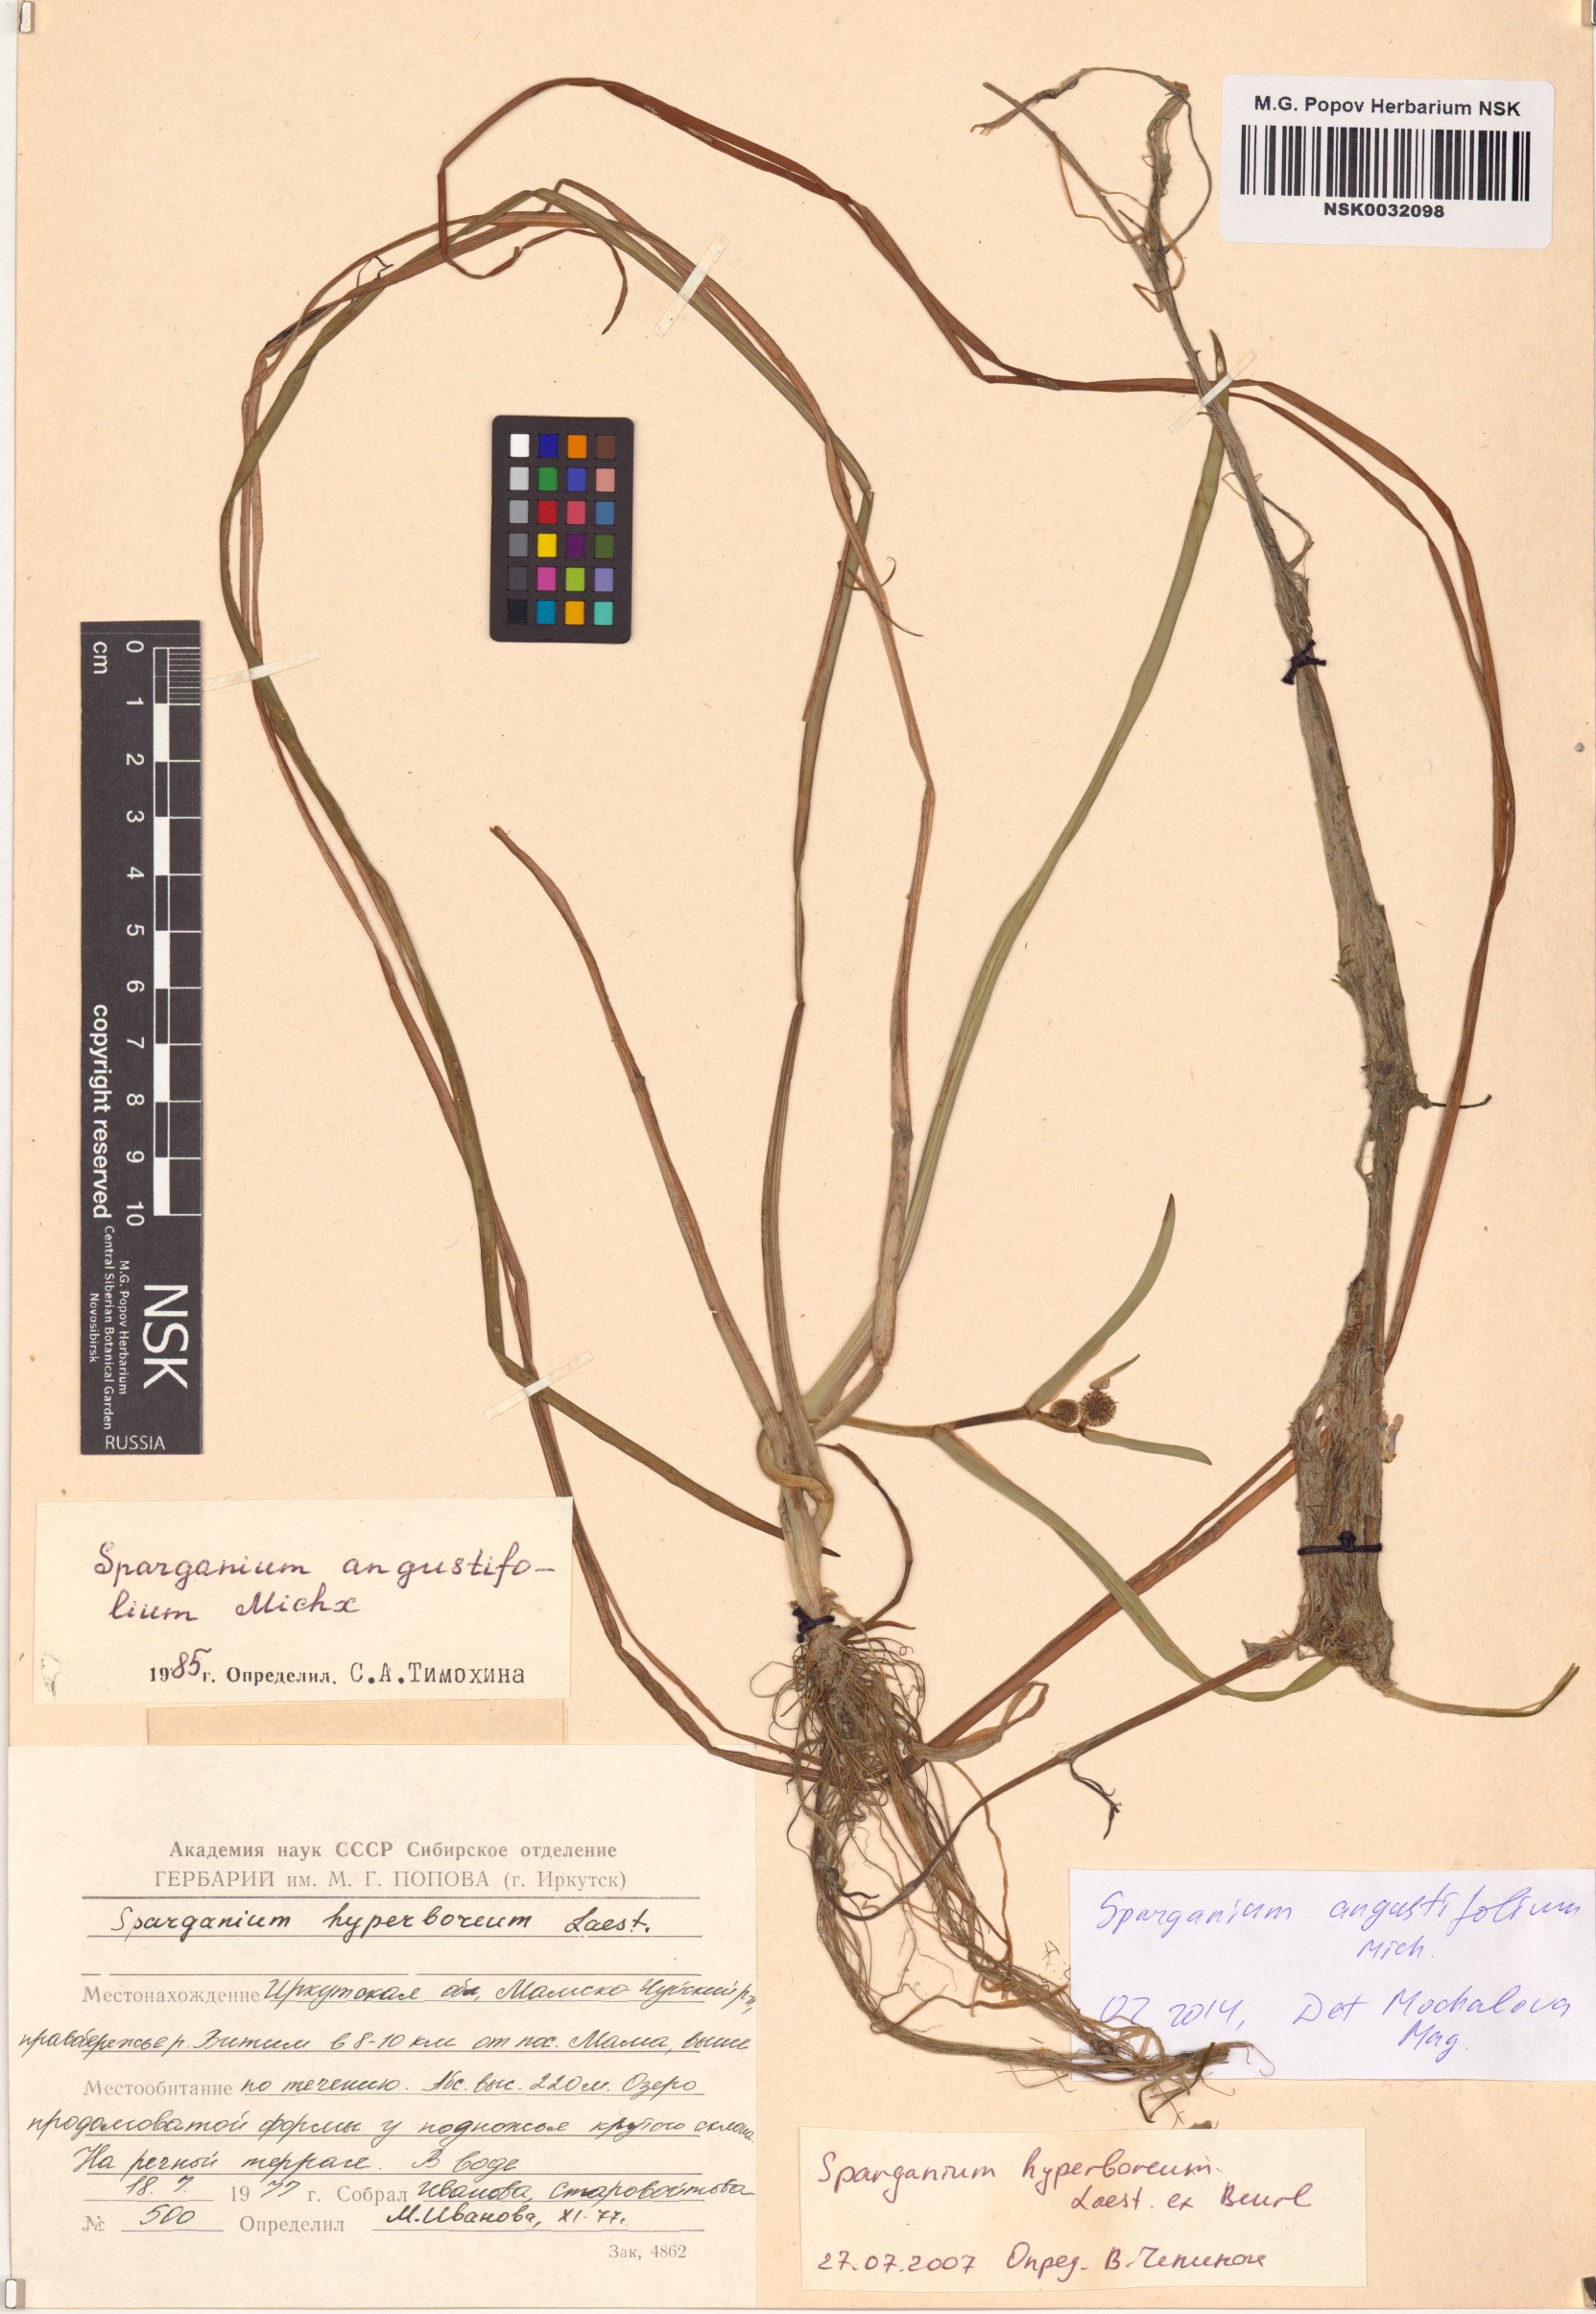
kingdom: Plantae
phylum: Tracheophyta
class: Liliopsida
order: Poales
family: Typhaceae
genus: Sparganium
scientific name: Sparganium angustifolium
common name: Floating bur-reed
